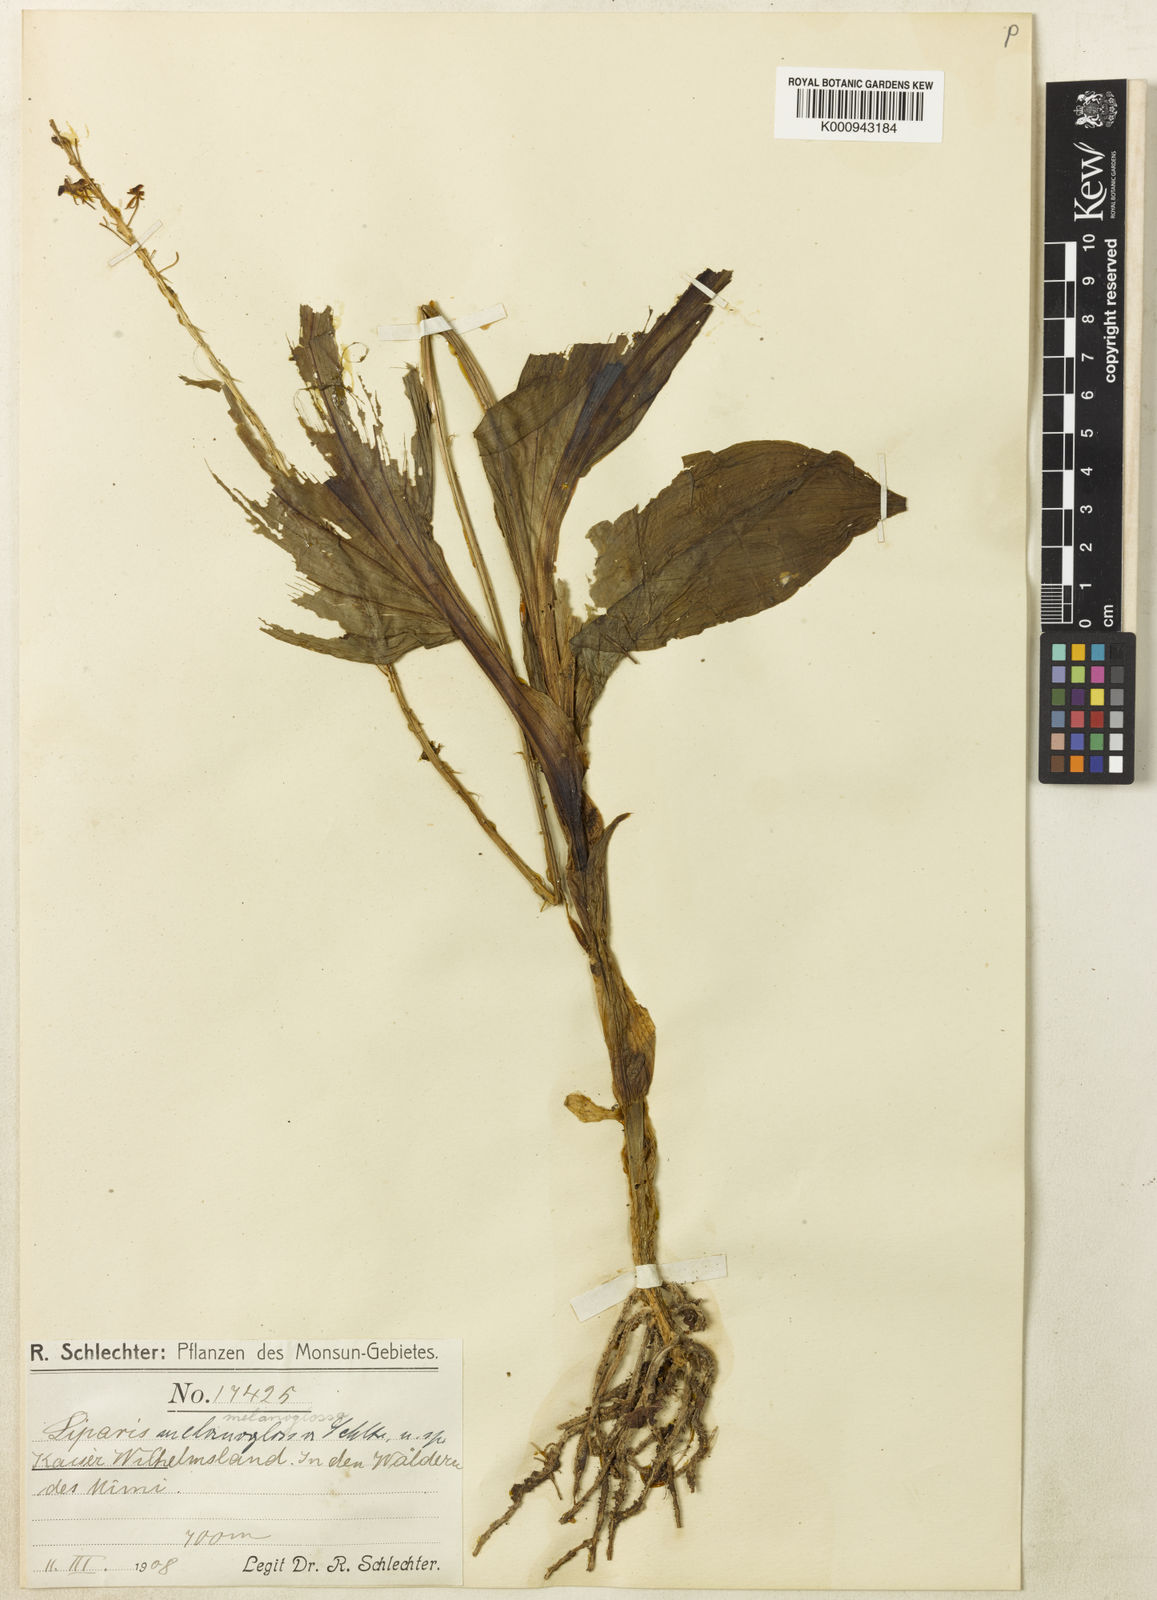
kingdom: Plantae
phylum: Tracheophyta
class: Liliopsida
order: Asparagales
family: Orchidaceae
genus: Liparis
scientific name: Liparis rheedei
